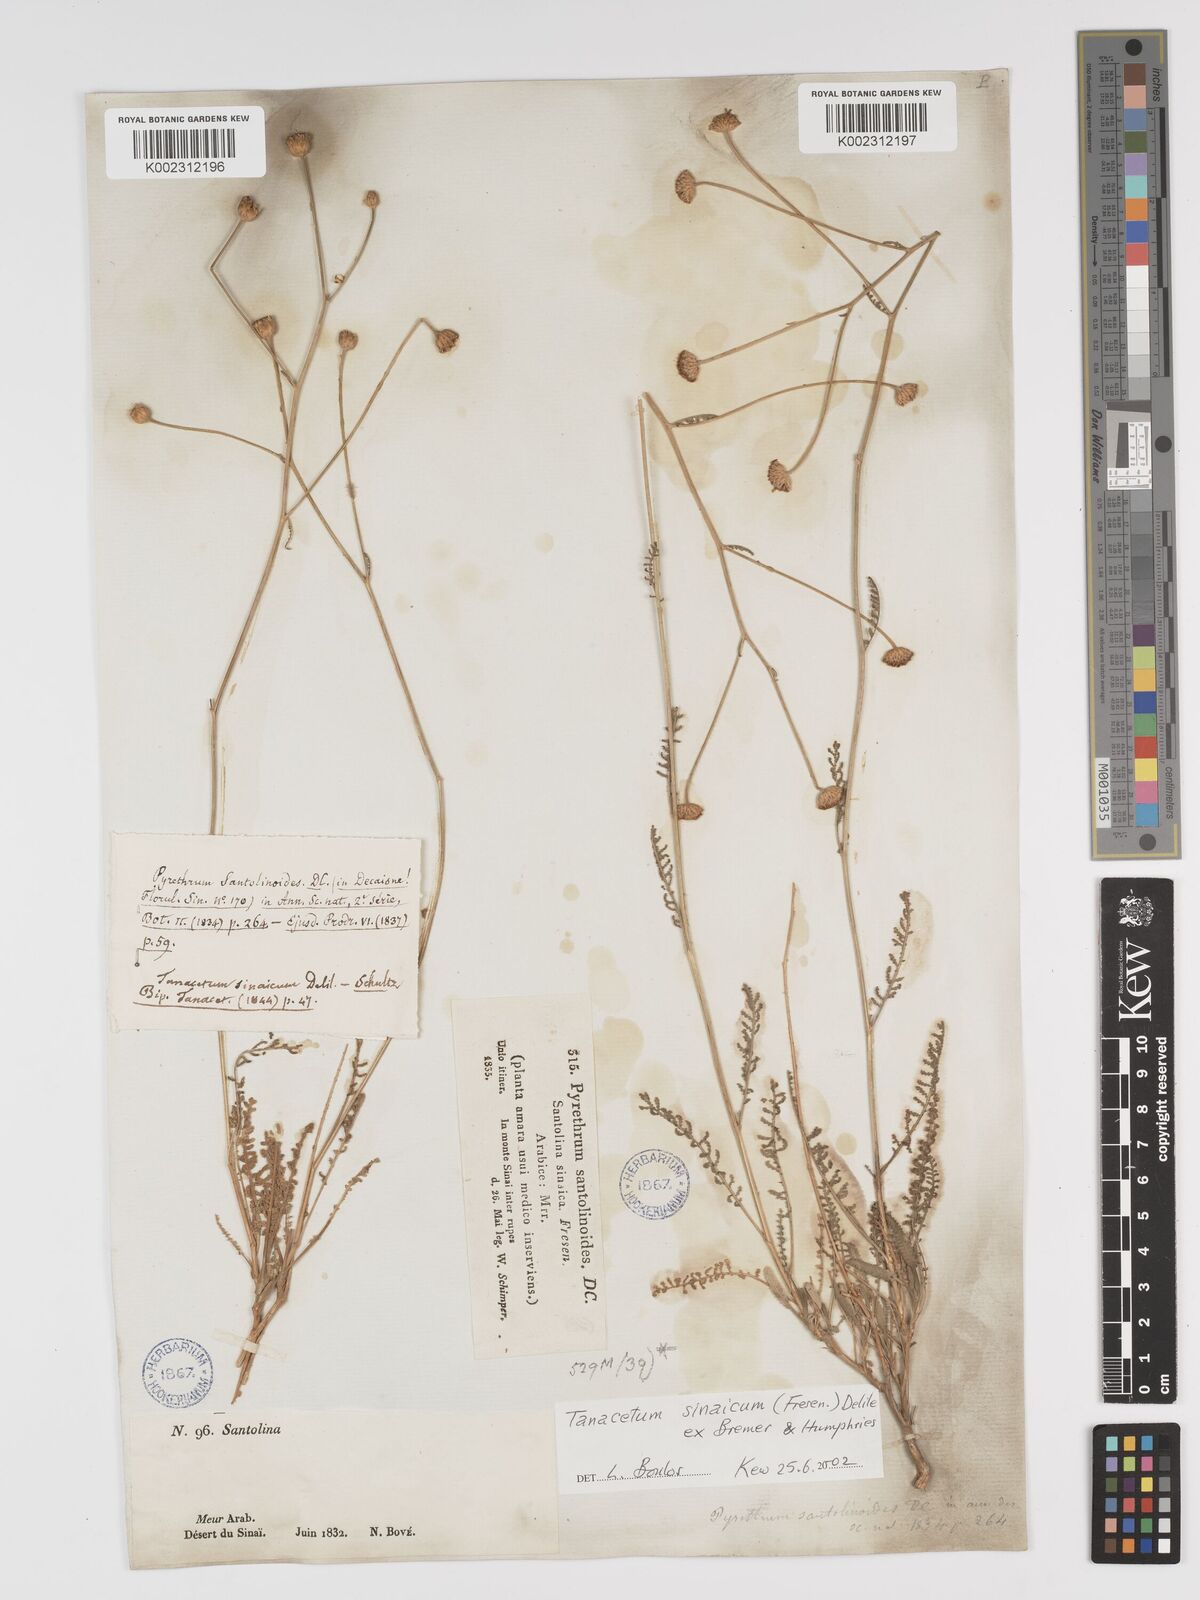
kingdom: Plantae
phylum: Tracheophyta
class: Magnoliopsida
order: Asterales
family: Asteraceae
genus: Tanacetum
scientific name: Tanacetum sinaicum
